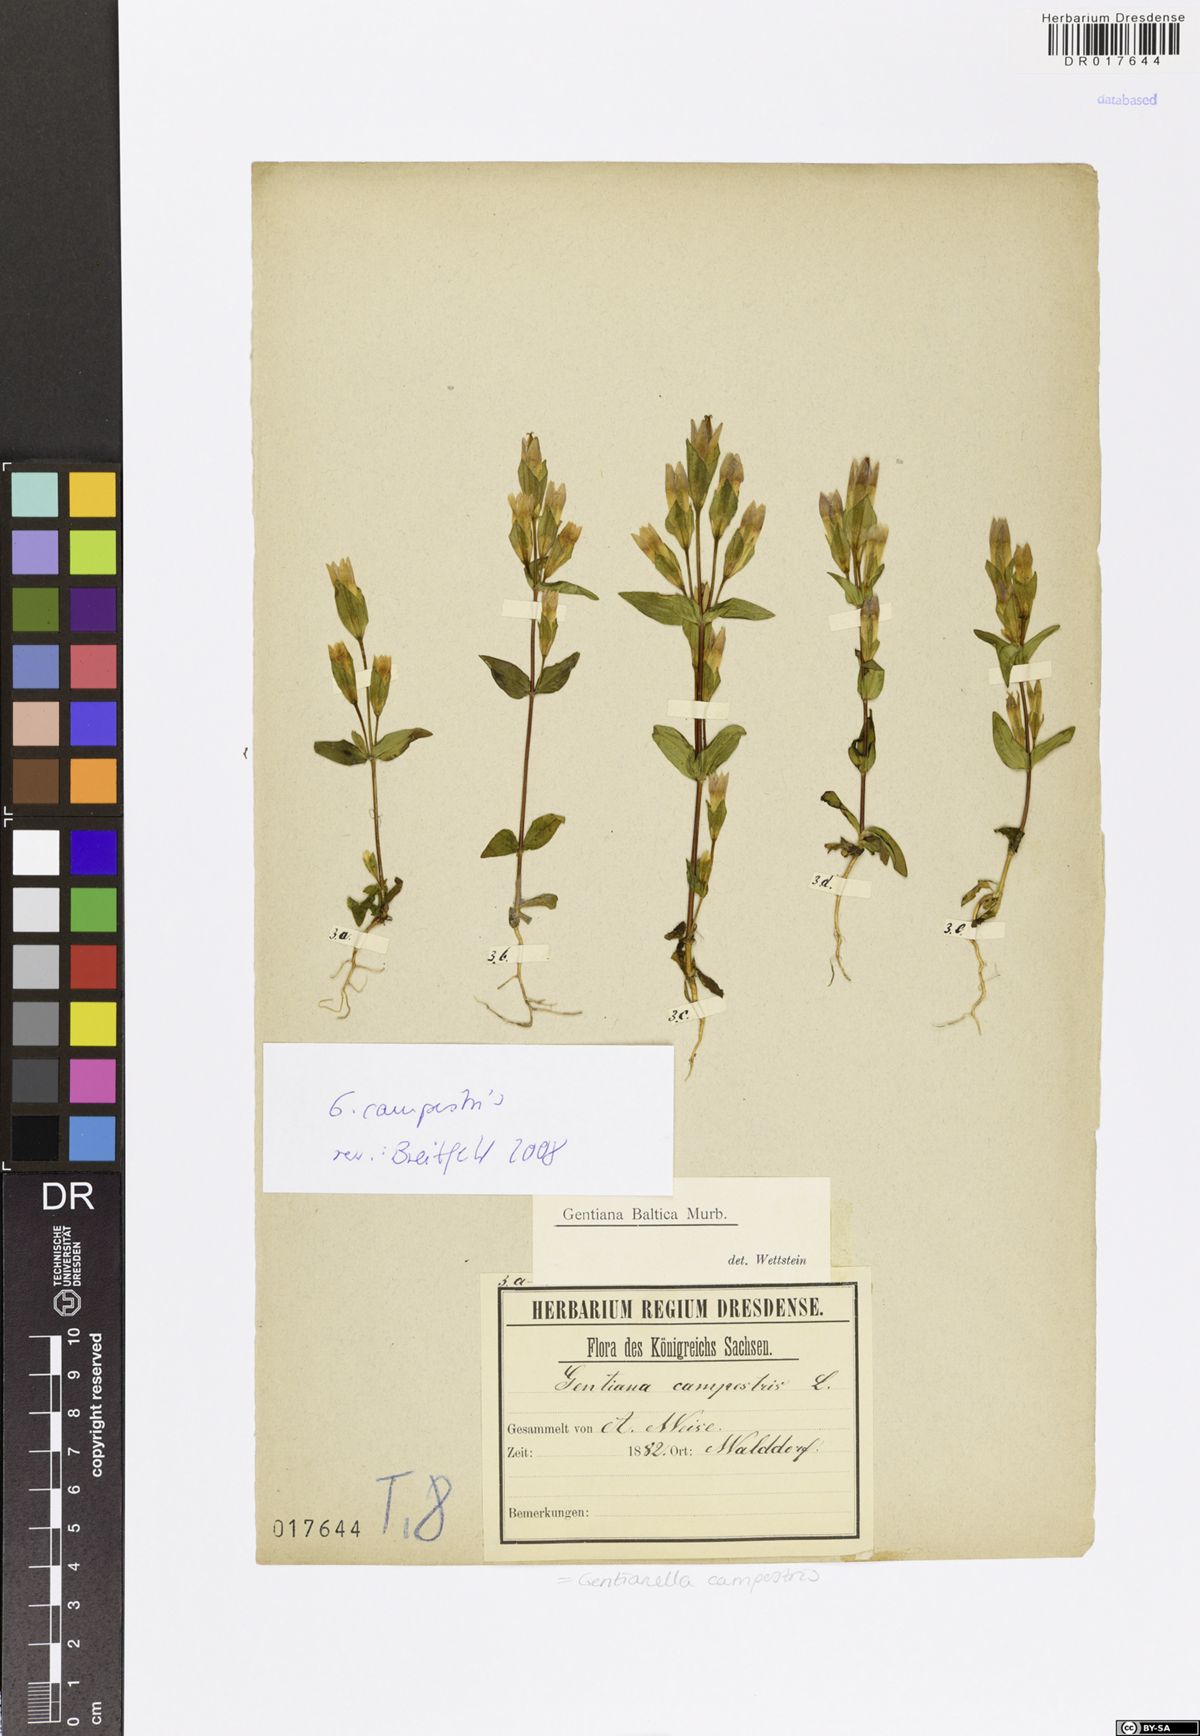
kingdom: Plantae
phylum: Tracheophyta
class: Magnoliopsida
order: Gentianales
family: Gentianaceae
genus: Gentianella
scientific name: Gentianella campestris
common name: Field gentian
